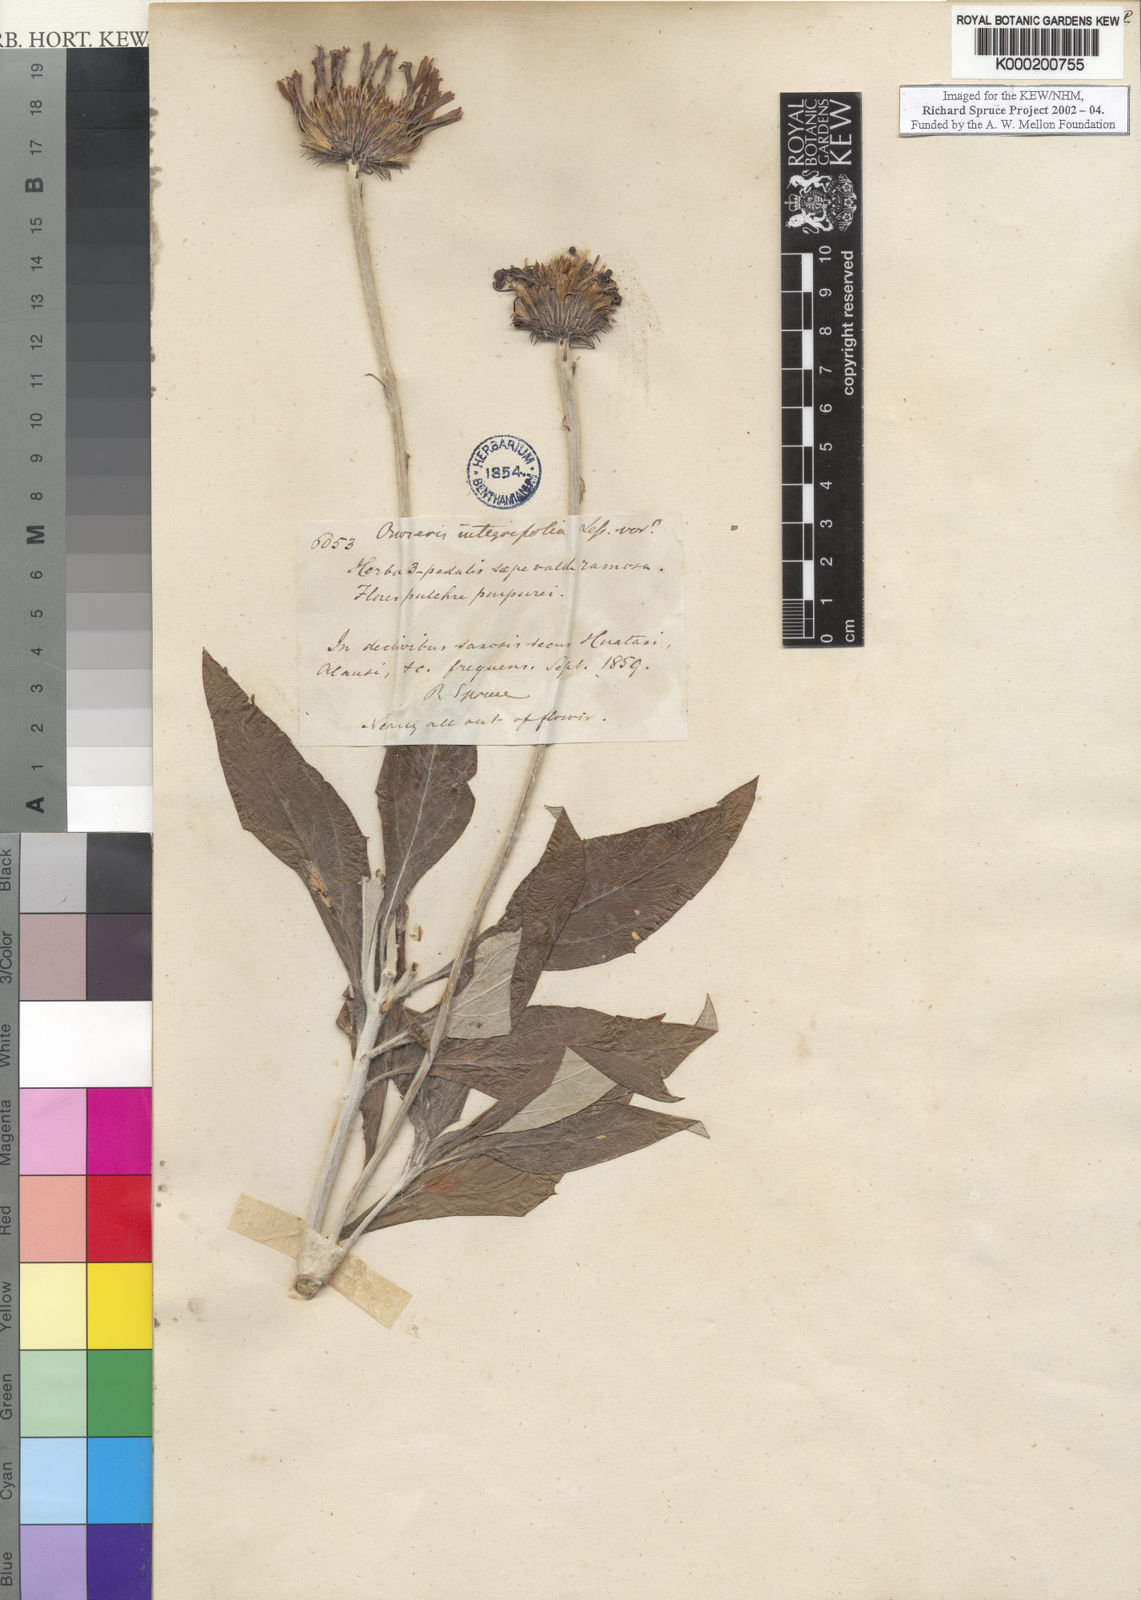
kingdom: Plantae
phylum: Tracheophyta
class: Magnoliopsida
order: Asterales
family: Asteraceae
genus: Onoseris
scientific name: Onoseris albicans
